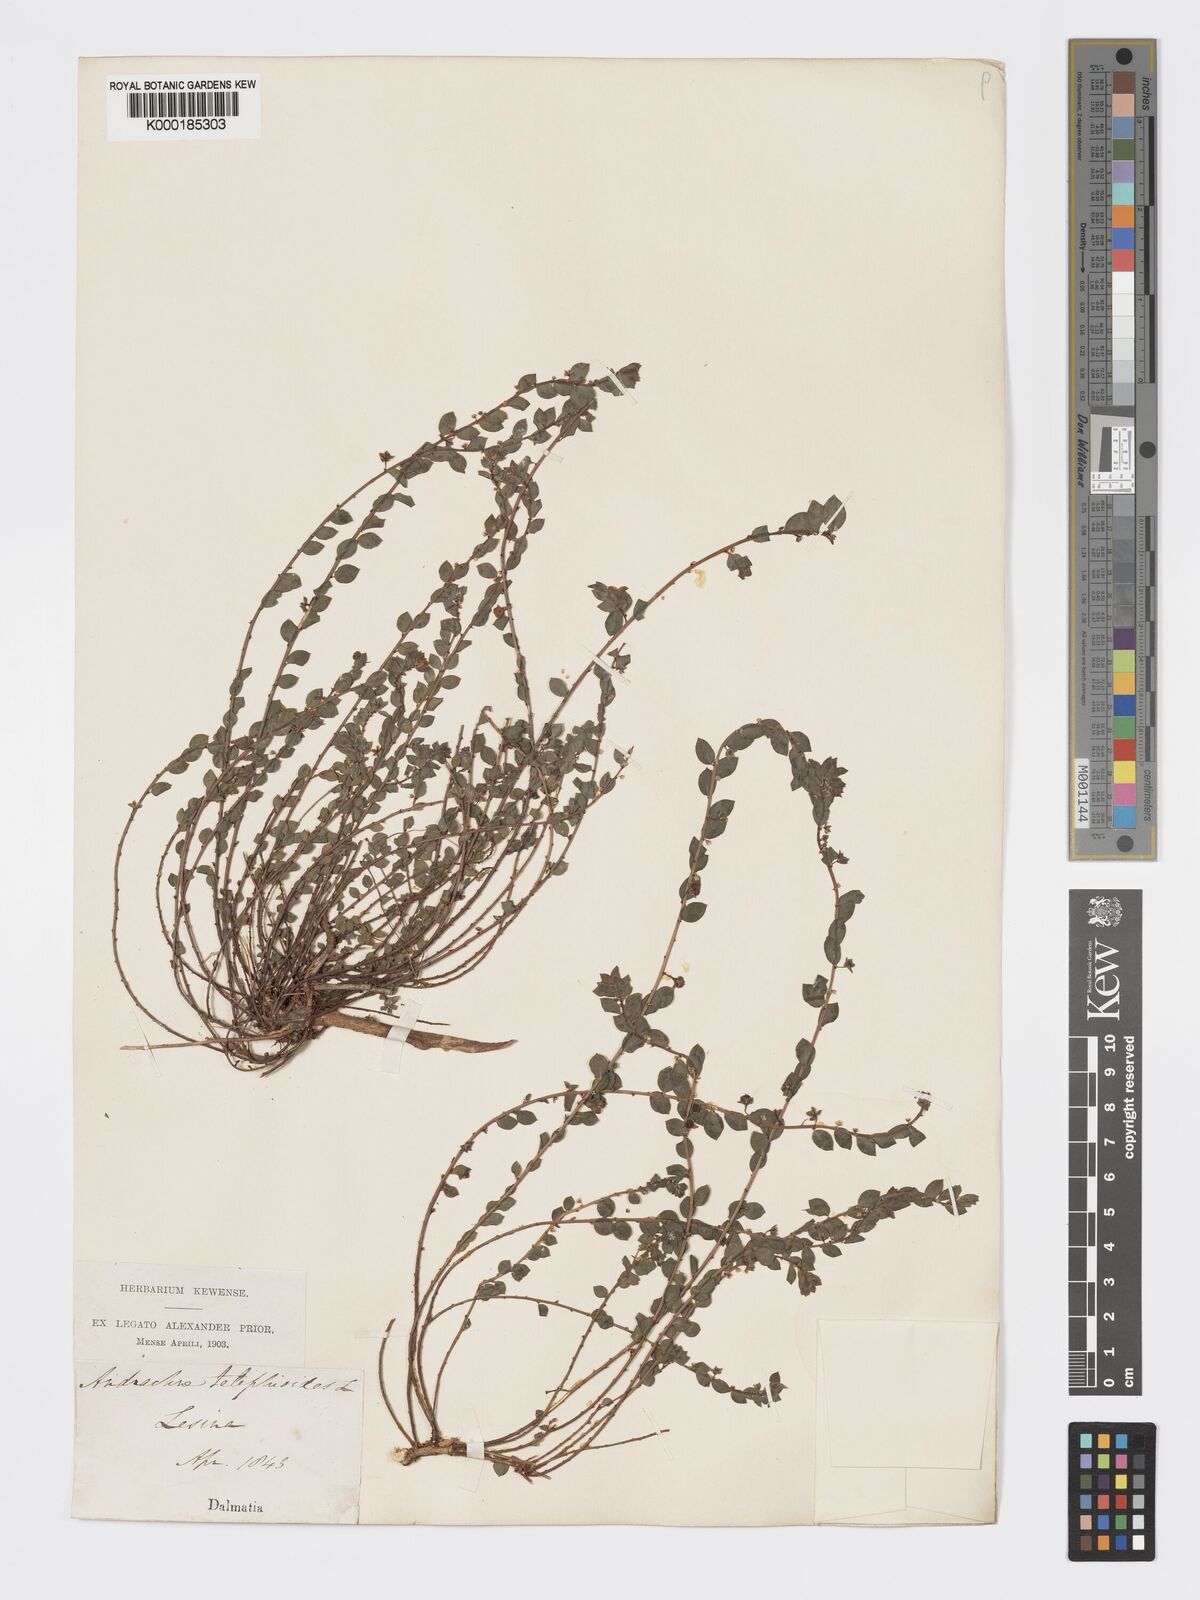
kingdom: Plantae
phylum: Tracheophyta
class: Magnoliopsida
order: Malpighiales
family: Phyllanthaceae
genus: Andrachne
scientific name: Andrachne telephioides
